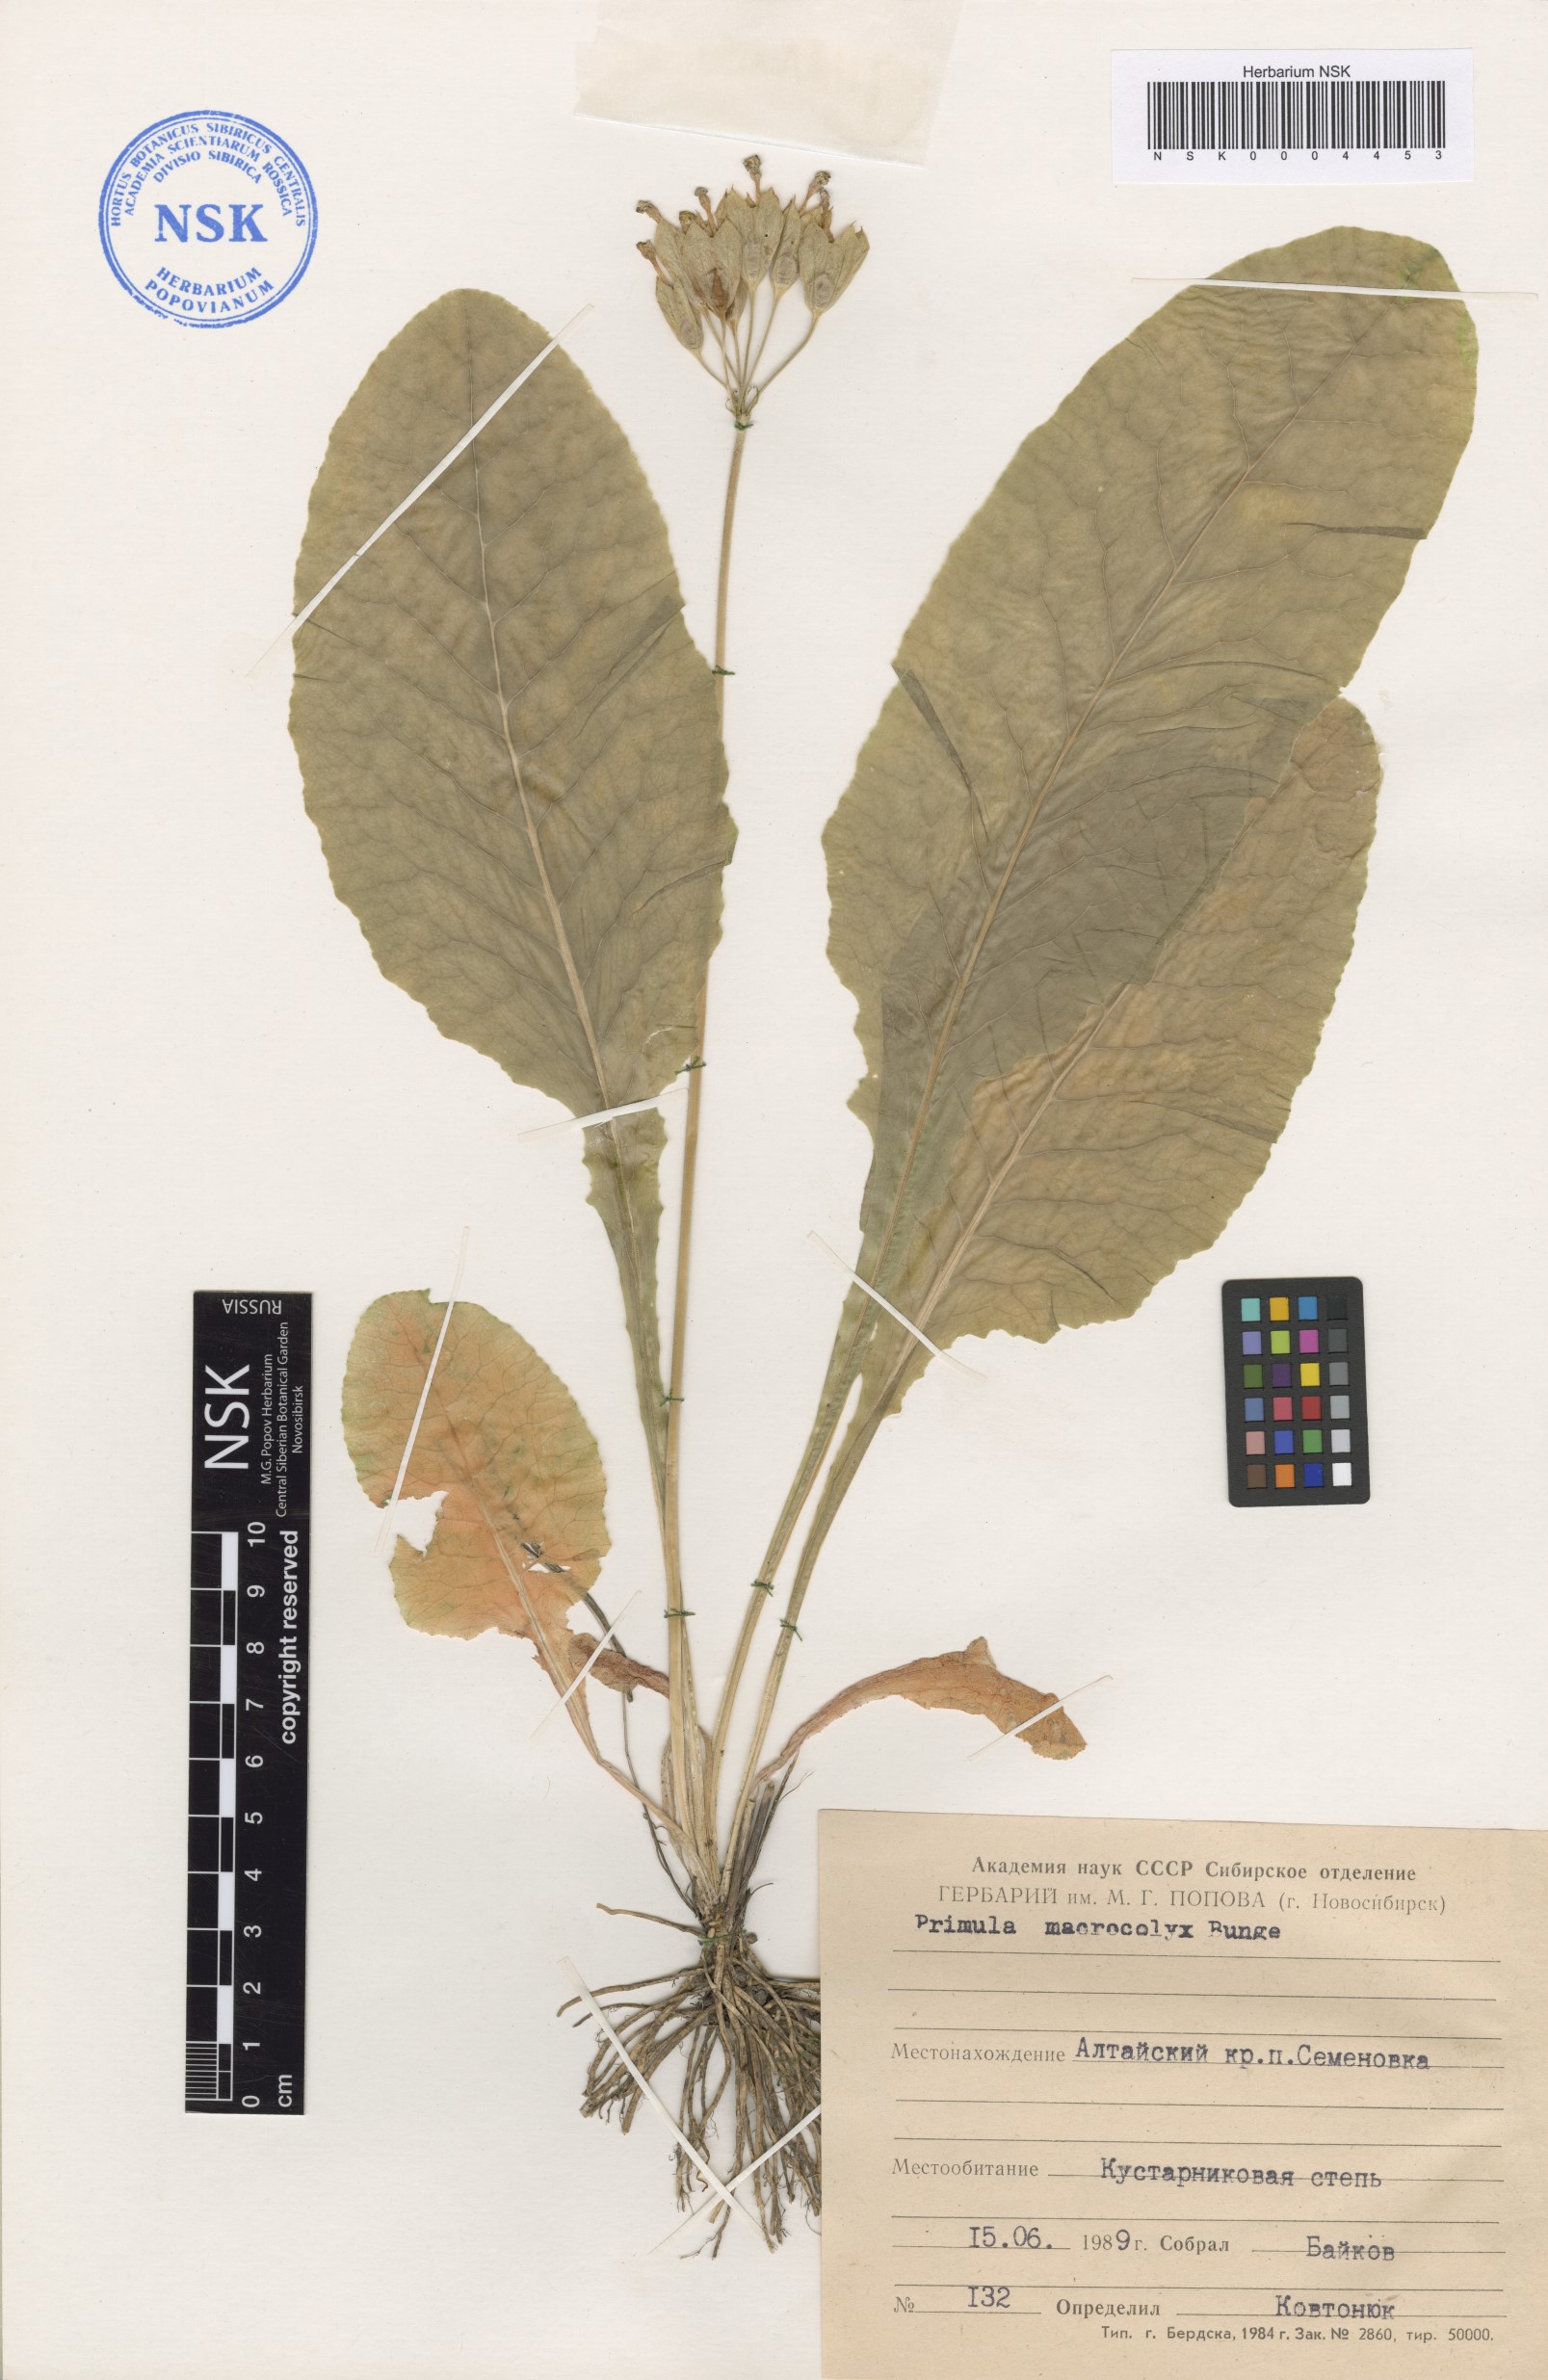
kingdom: Plantae
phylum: Tracheophyta
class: Magnoliopsida
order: Ericales
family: Primulaceae
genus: Primula
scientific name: Primula veris
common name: Cowslip
